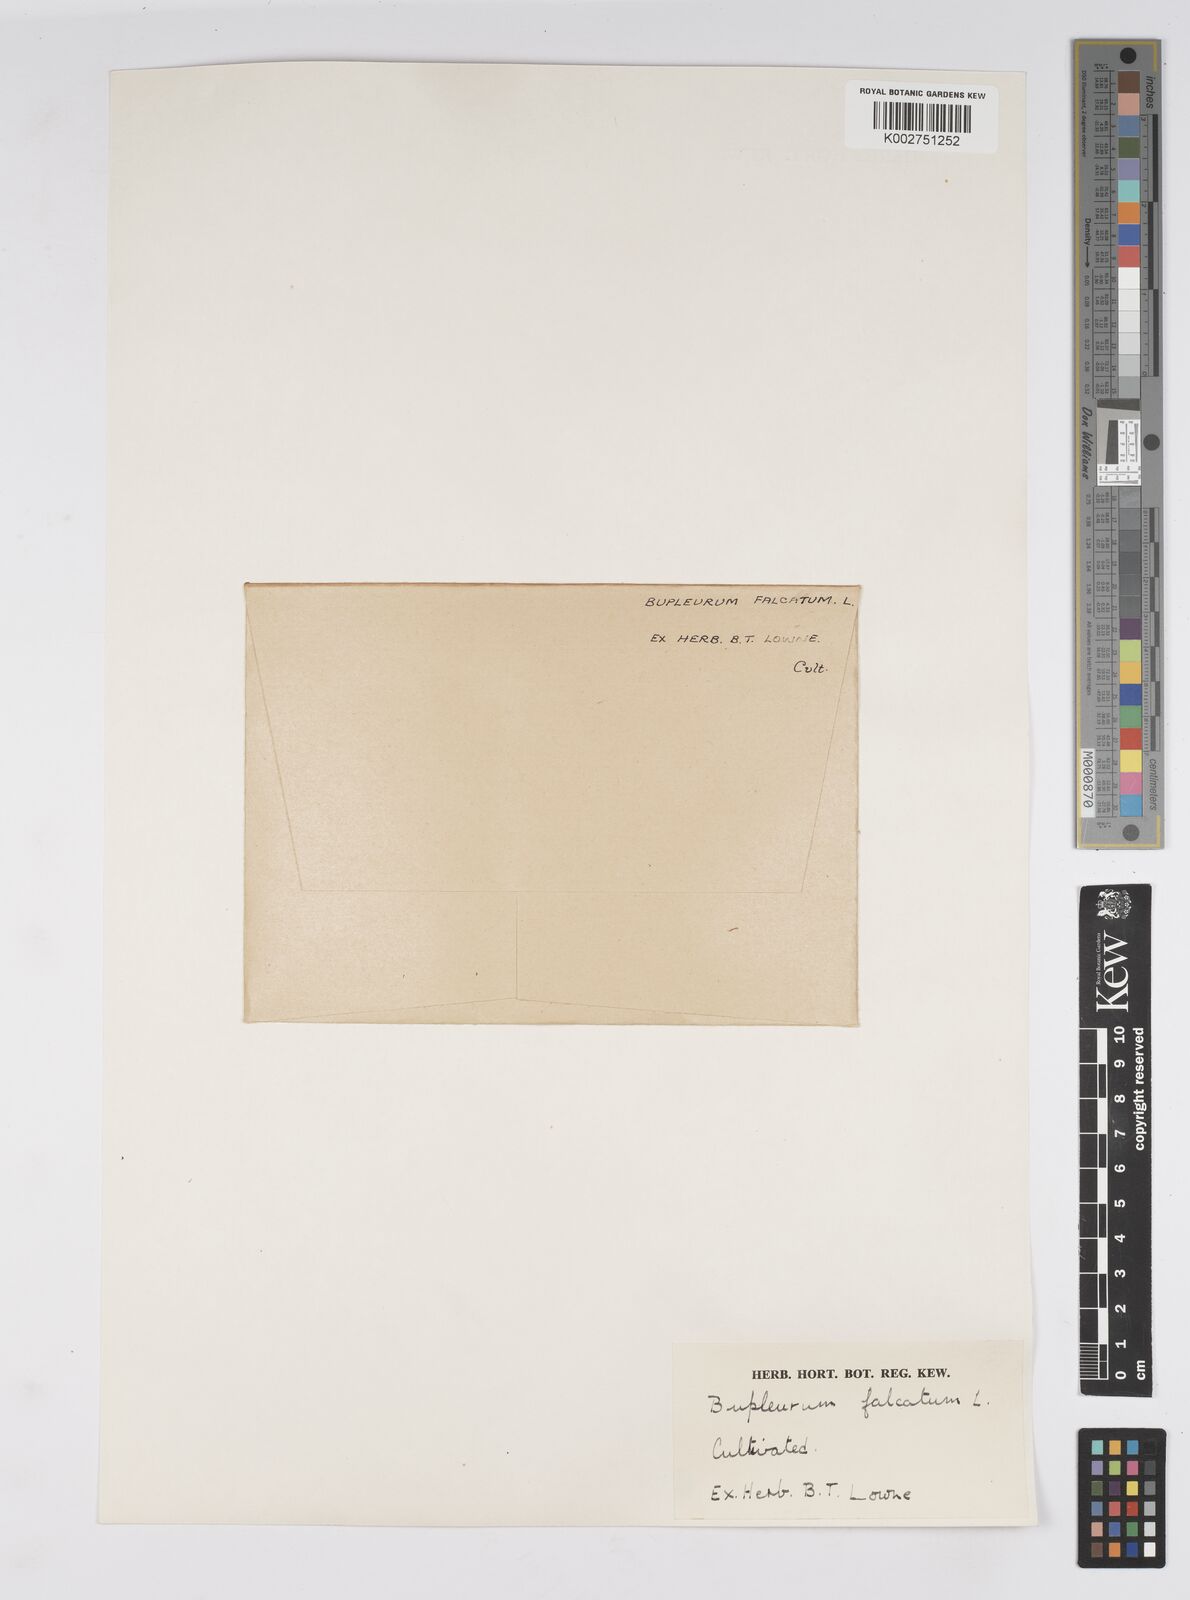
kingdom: Plantae
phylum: Tracheophyta
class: Magnoliopsida
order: Apiales
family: Apiaceae
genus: Bupleurum
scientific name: Bupleurum falcatum
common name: Sickle-leaved hare's-ear
